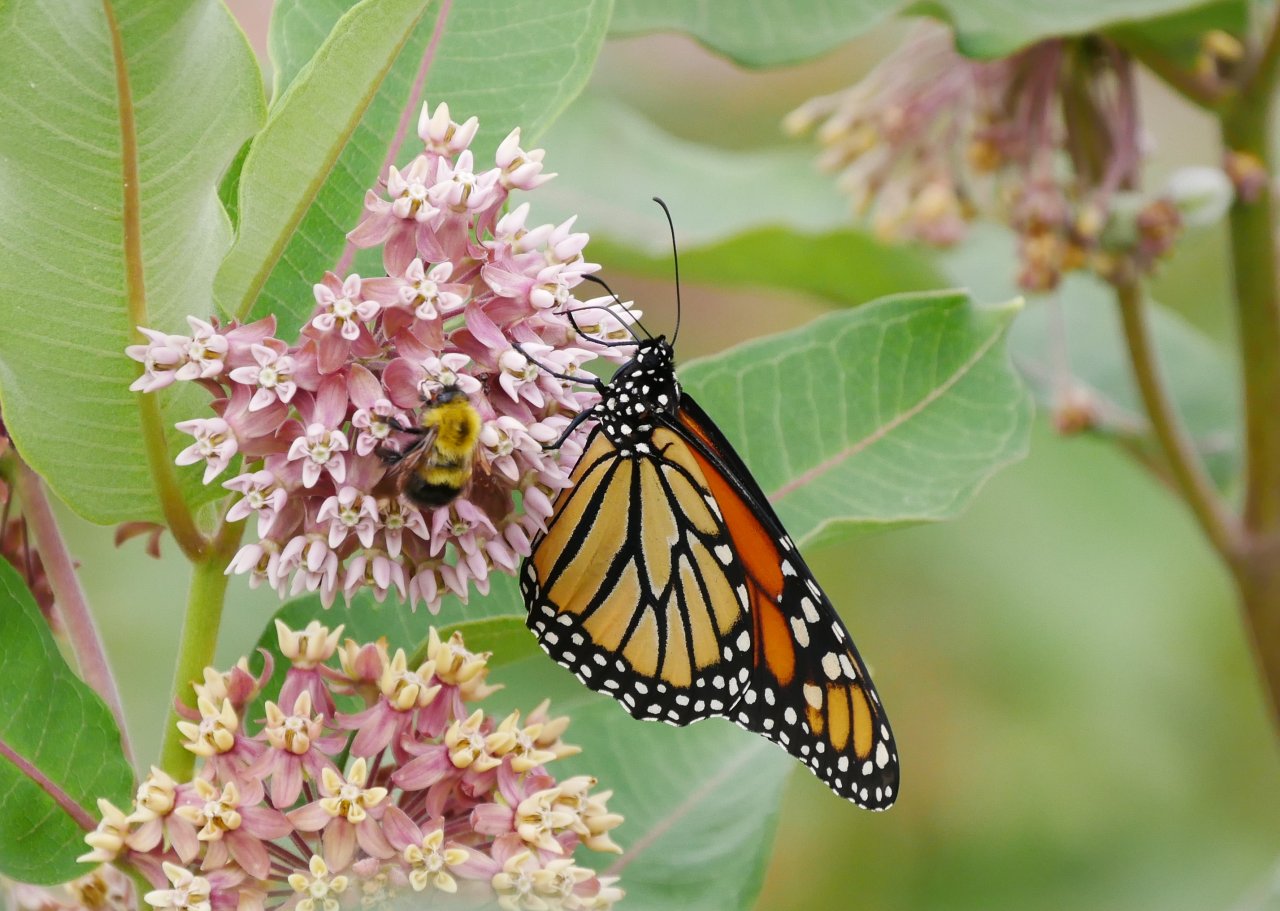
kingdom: Animalia
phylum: Arthropoda
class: Insecta
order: Lepidoptera
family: Nymphalidae
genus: Danaus
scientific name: Danaus plexippus
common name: Monarch
